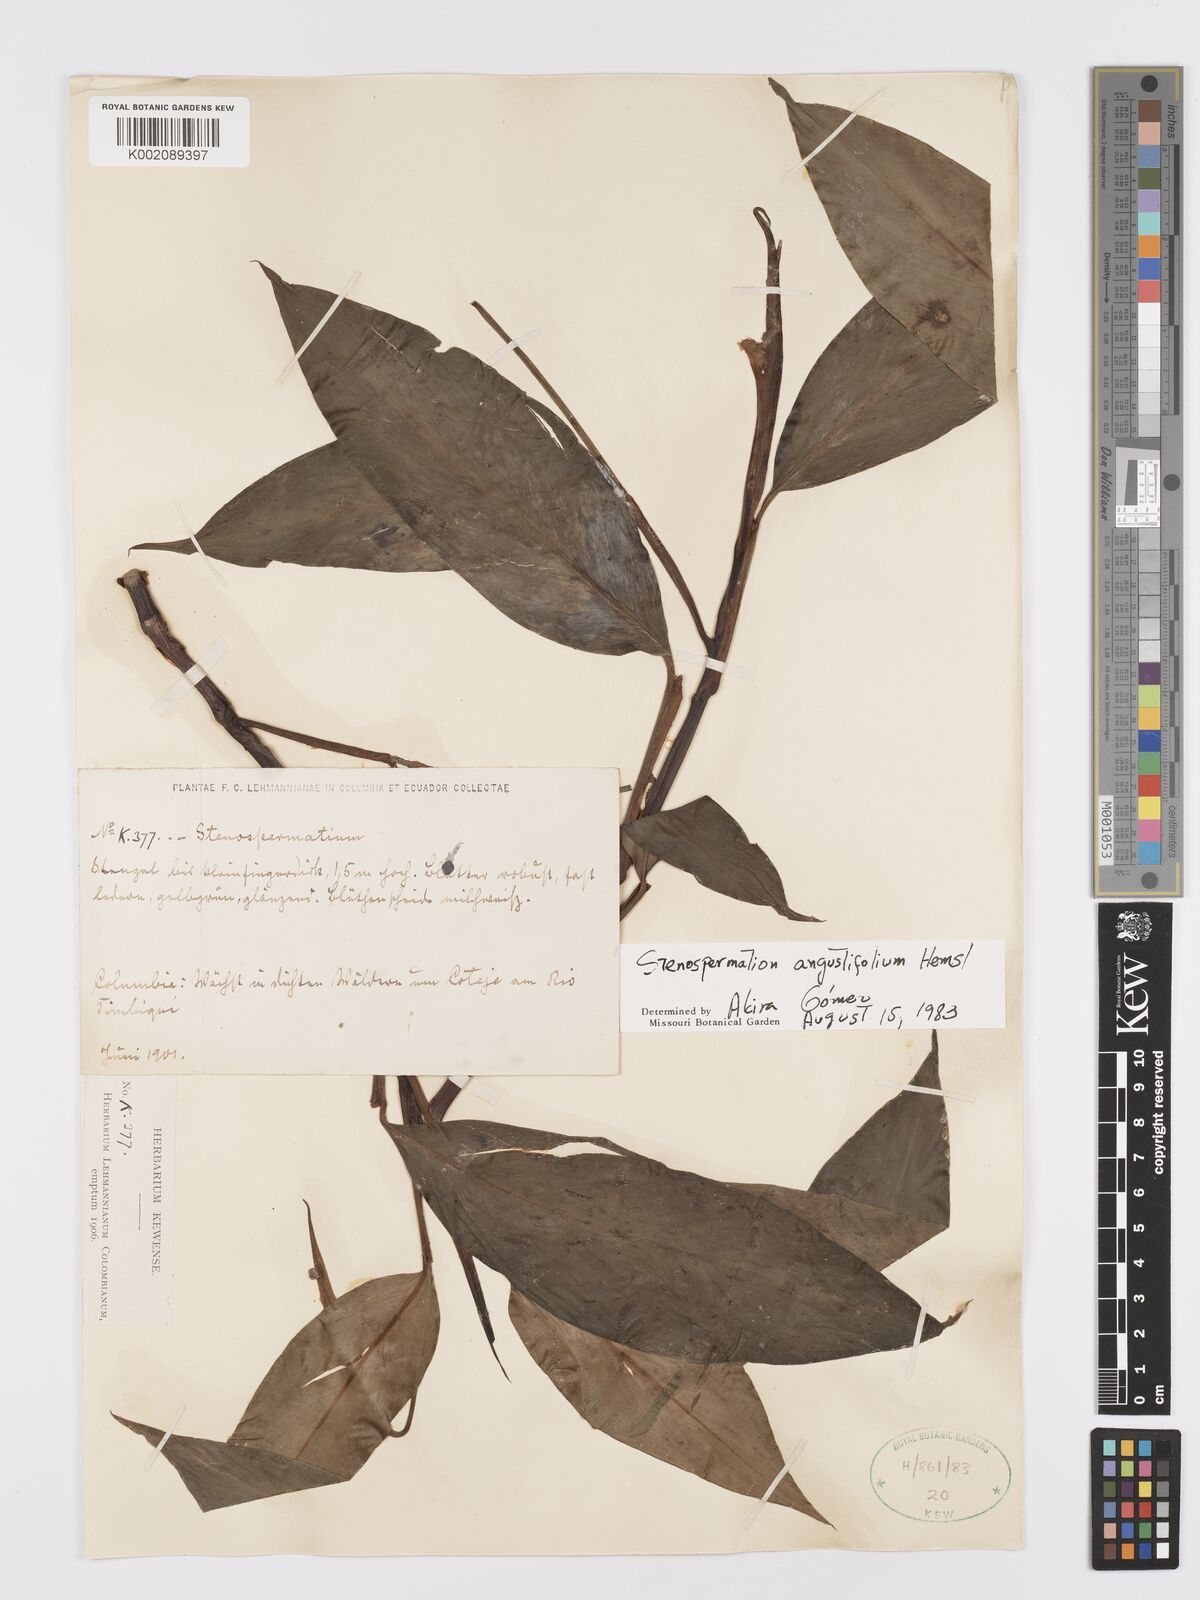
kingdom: Plantae
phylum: Tracheophyta
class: Liliopsida
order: Alismatales
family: Araceae
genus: Stenospermation
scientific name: Stenospermation angustifolium
